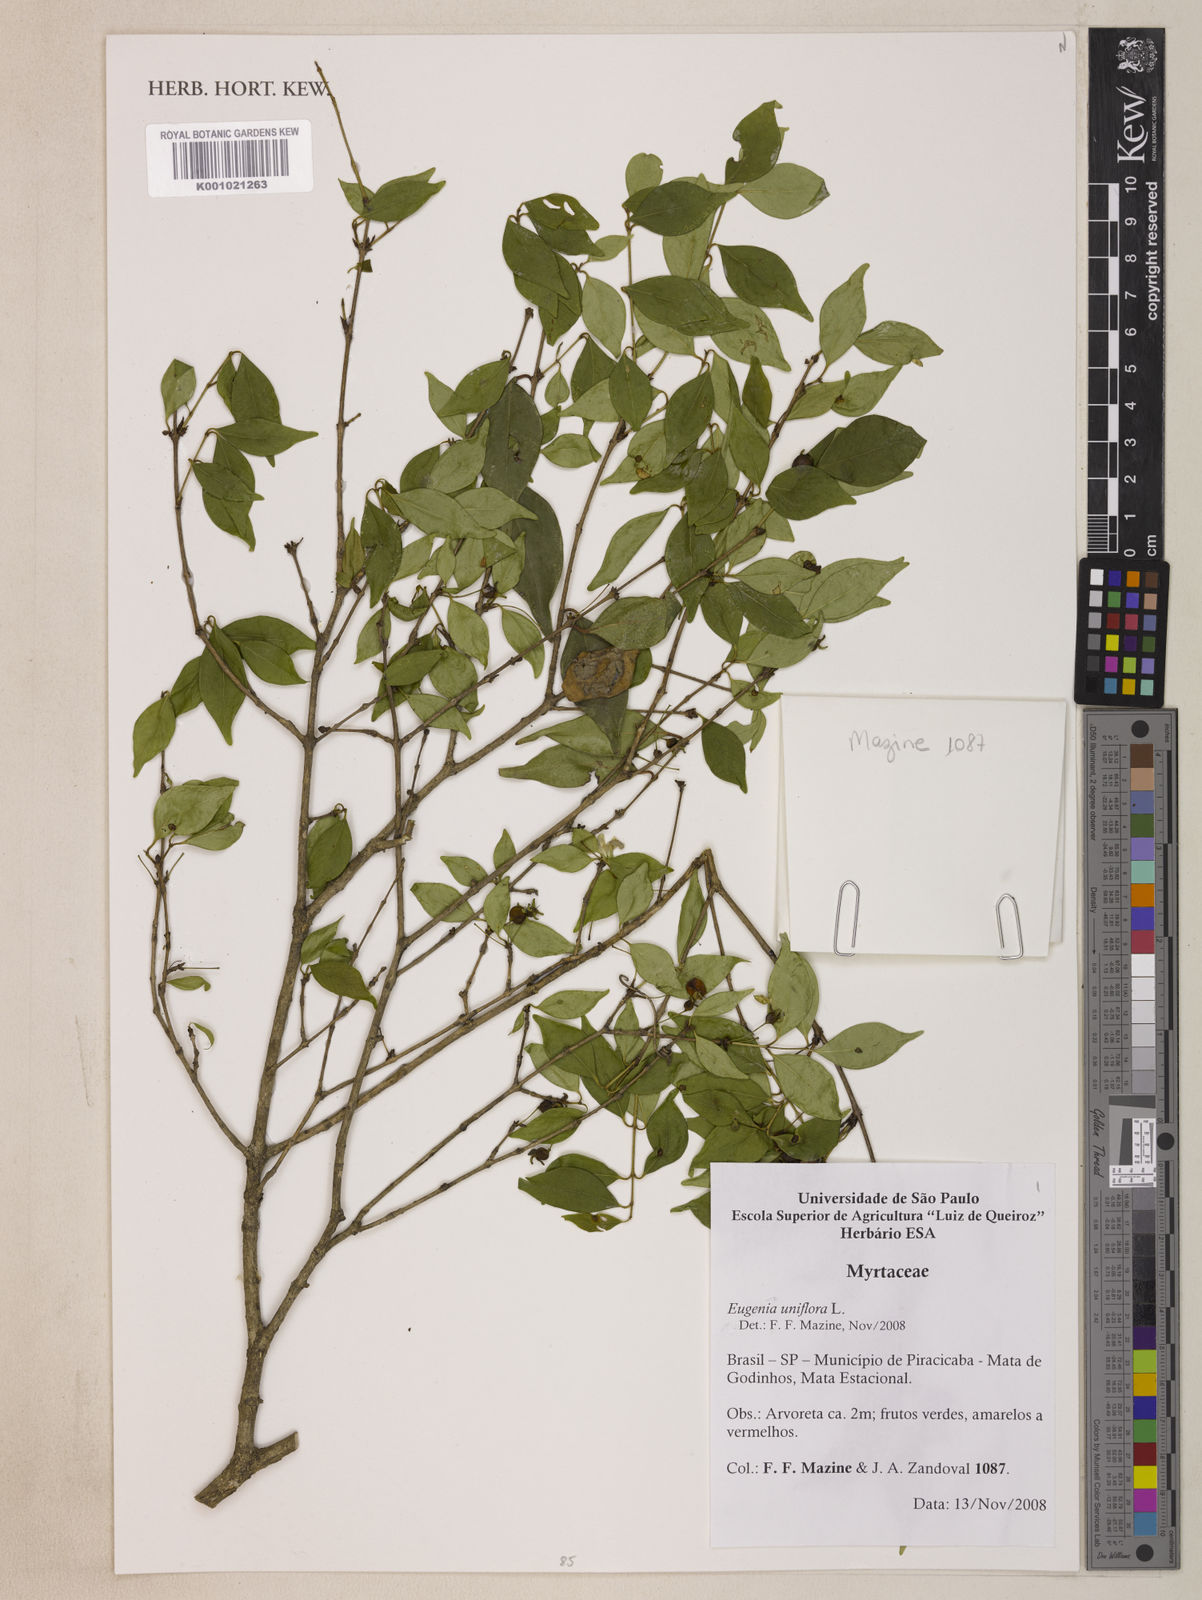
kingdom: Plantae
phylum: Tracheophyta
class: Magnoliopsida
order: Myrtales
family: Myrtaceae
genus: Eugenia
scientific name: Eugenia uniflora
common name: Surinam cherry
